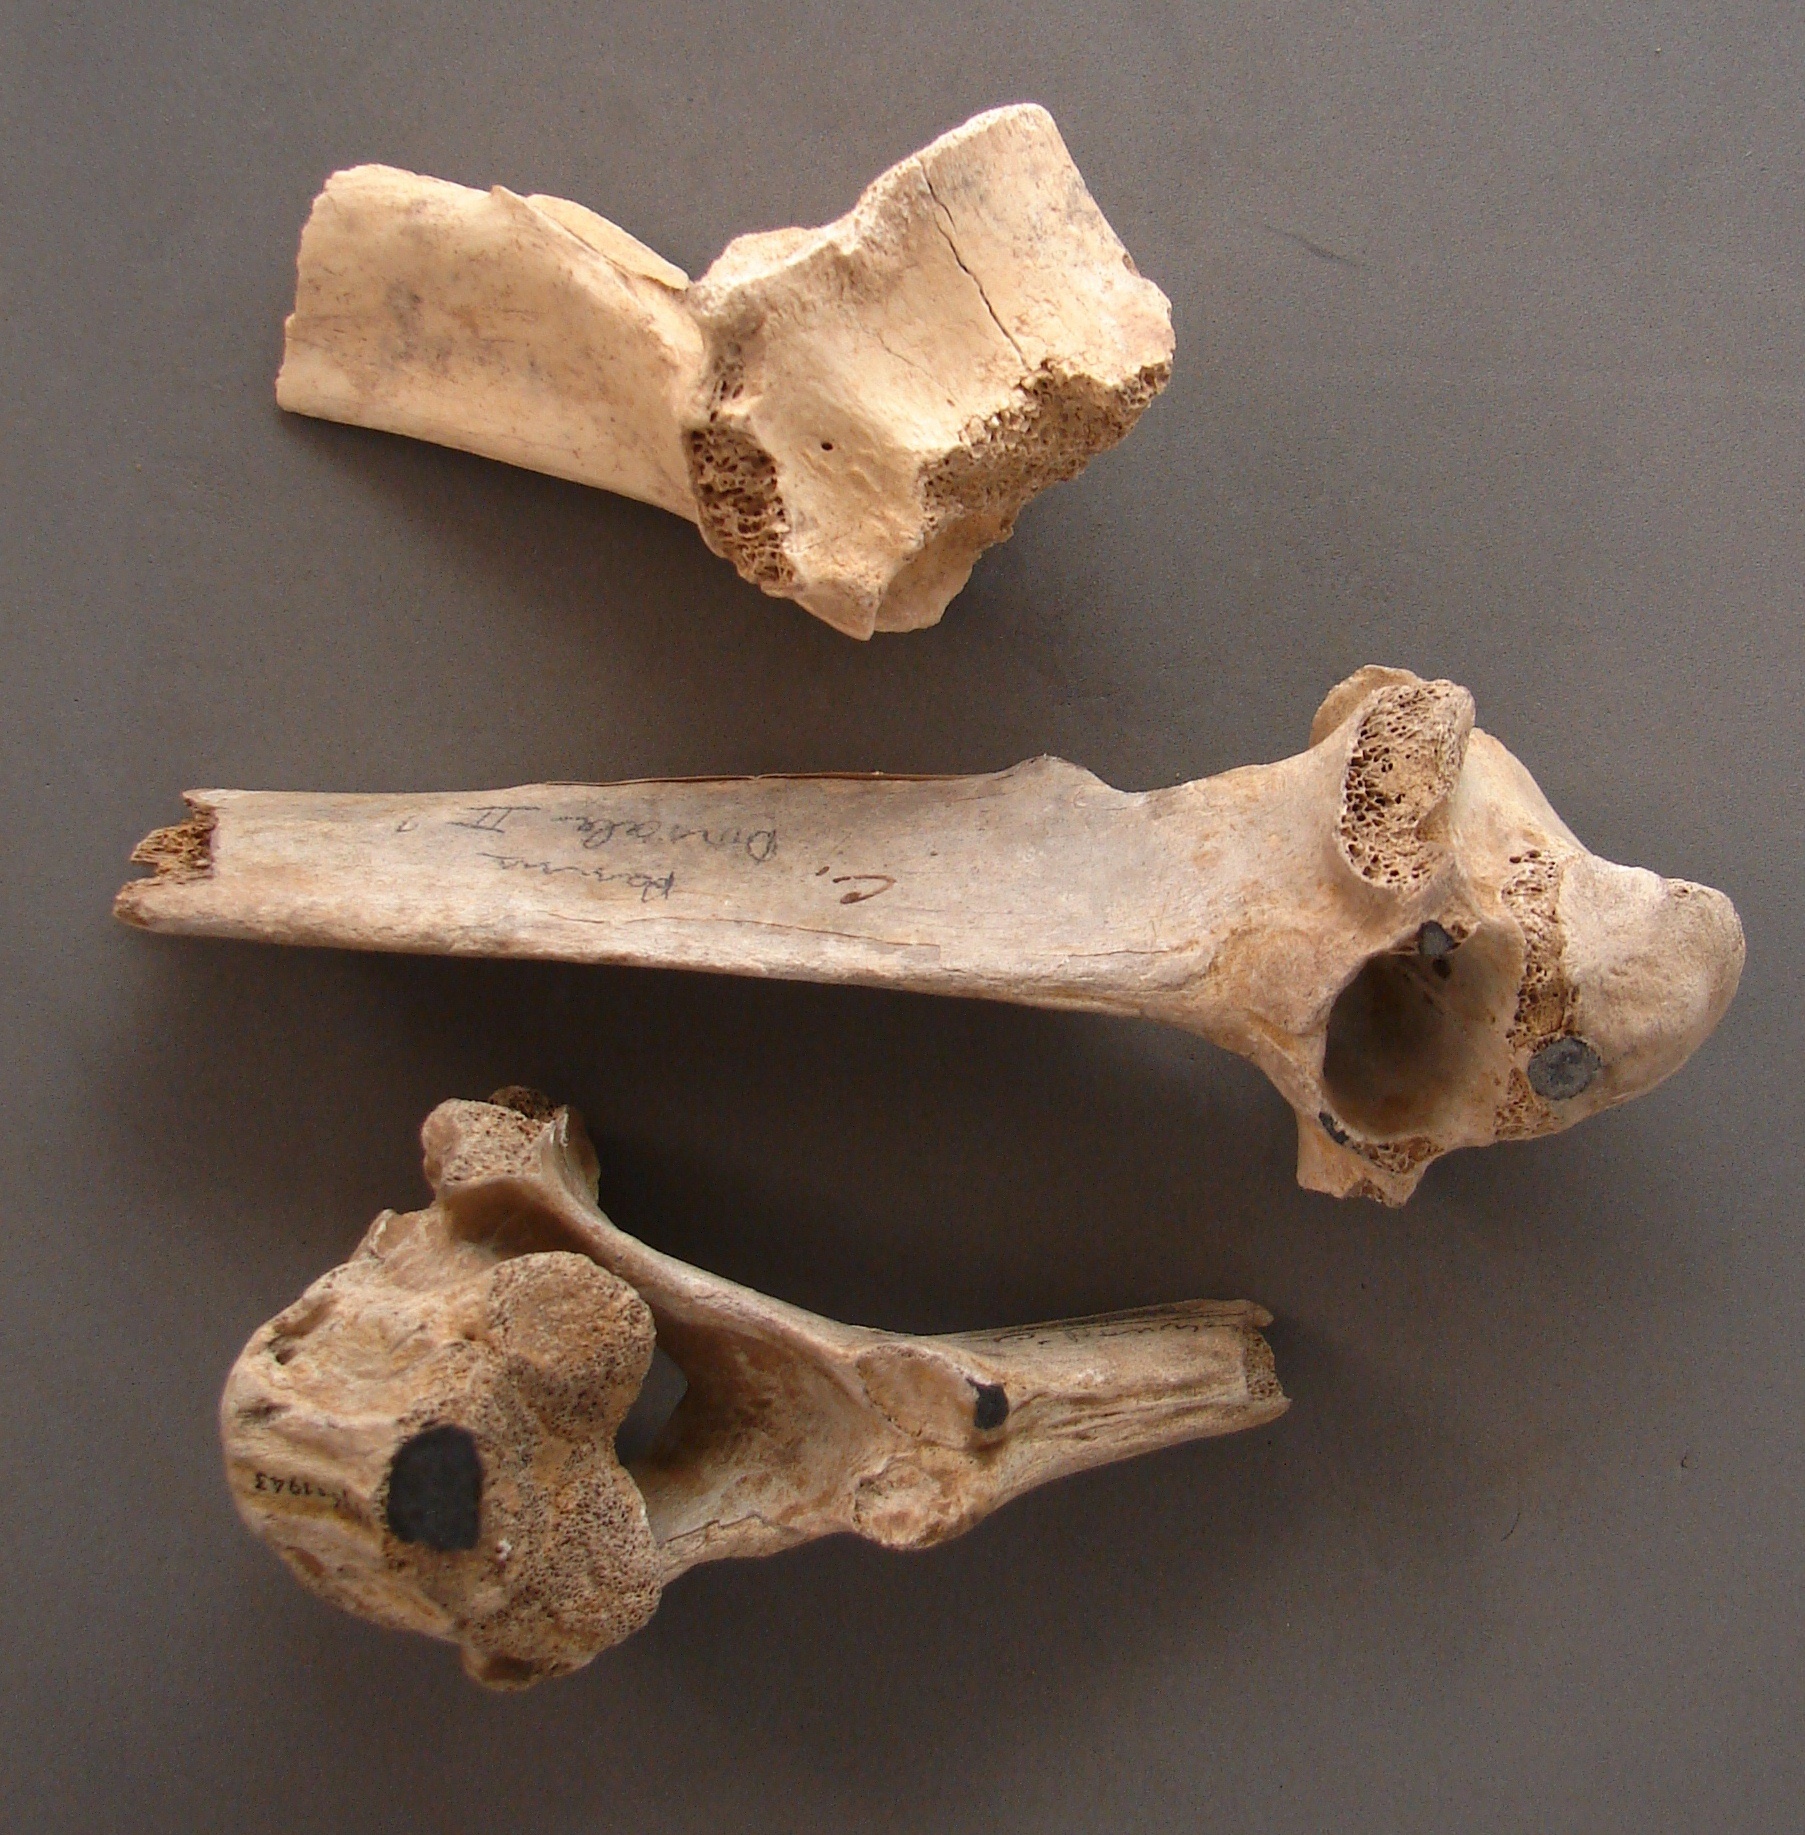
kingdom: Animalia
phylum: Chordata
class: Mammalia
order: Artiodactyla
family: Cervidae
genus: Rangifer
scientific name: Rangifer tarandus
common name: Reindeer
